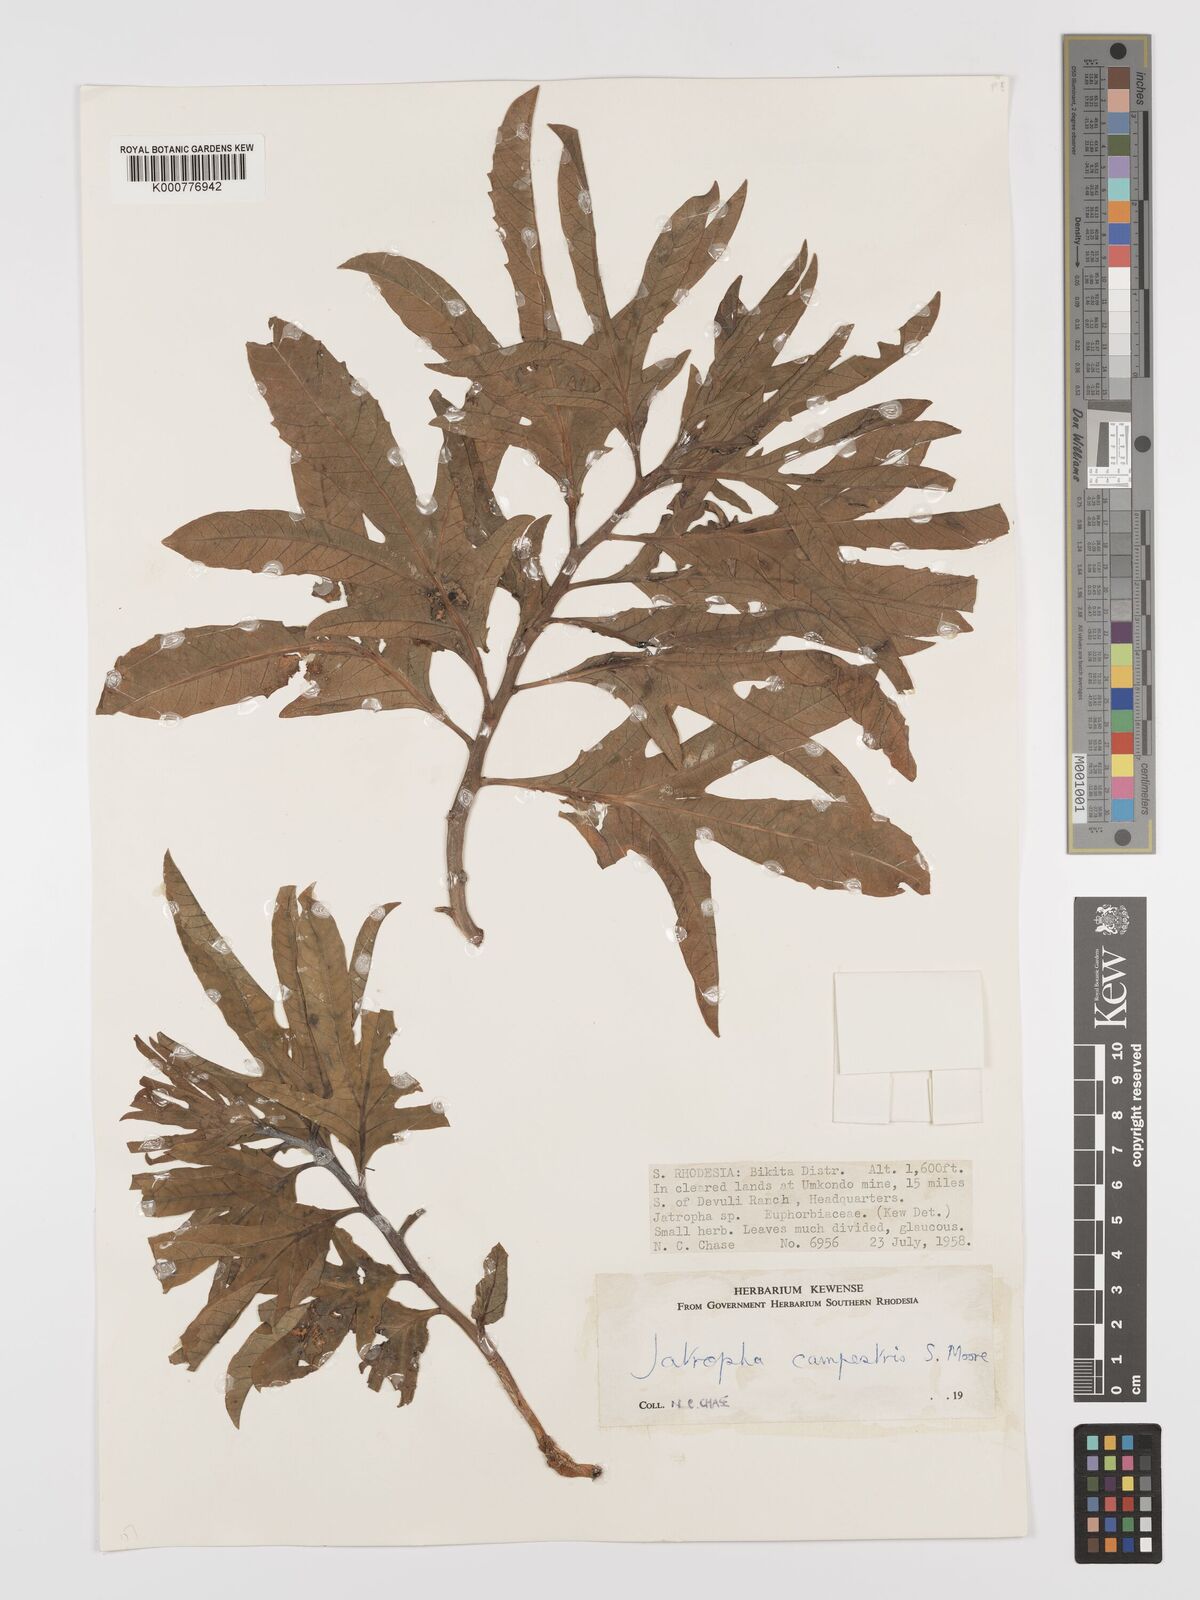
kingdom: Plantae
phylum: Tracheophyta
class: Magnoliopsida
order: Malpighiales
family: Euphorbiaceae
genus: Jatropha
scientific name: Jatropha campestris
